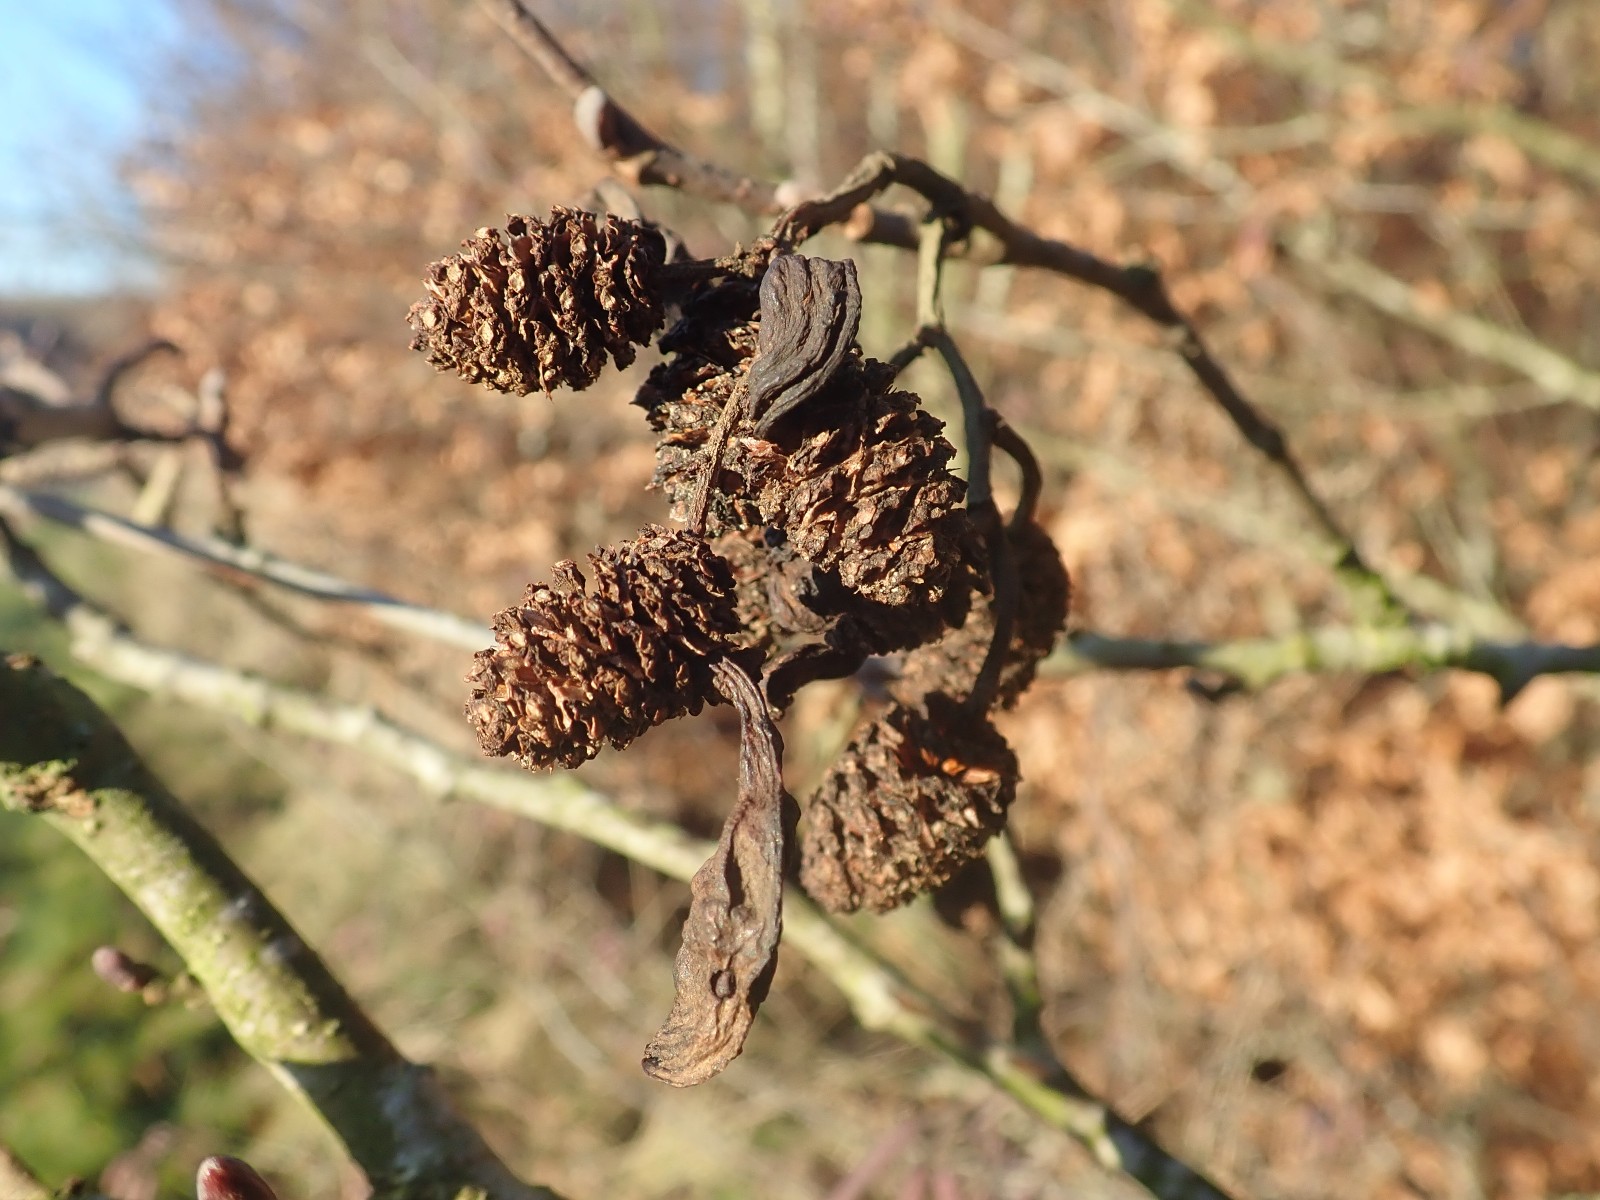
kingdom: Fungi
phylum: Ascomycota
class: Taphrinomycetes
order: Taphrinales
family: Taphrinaceae
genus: Taphrina
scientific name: Taphrina alni
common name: Alder tongue
